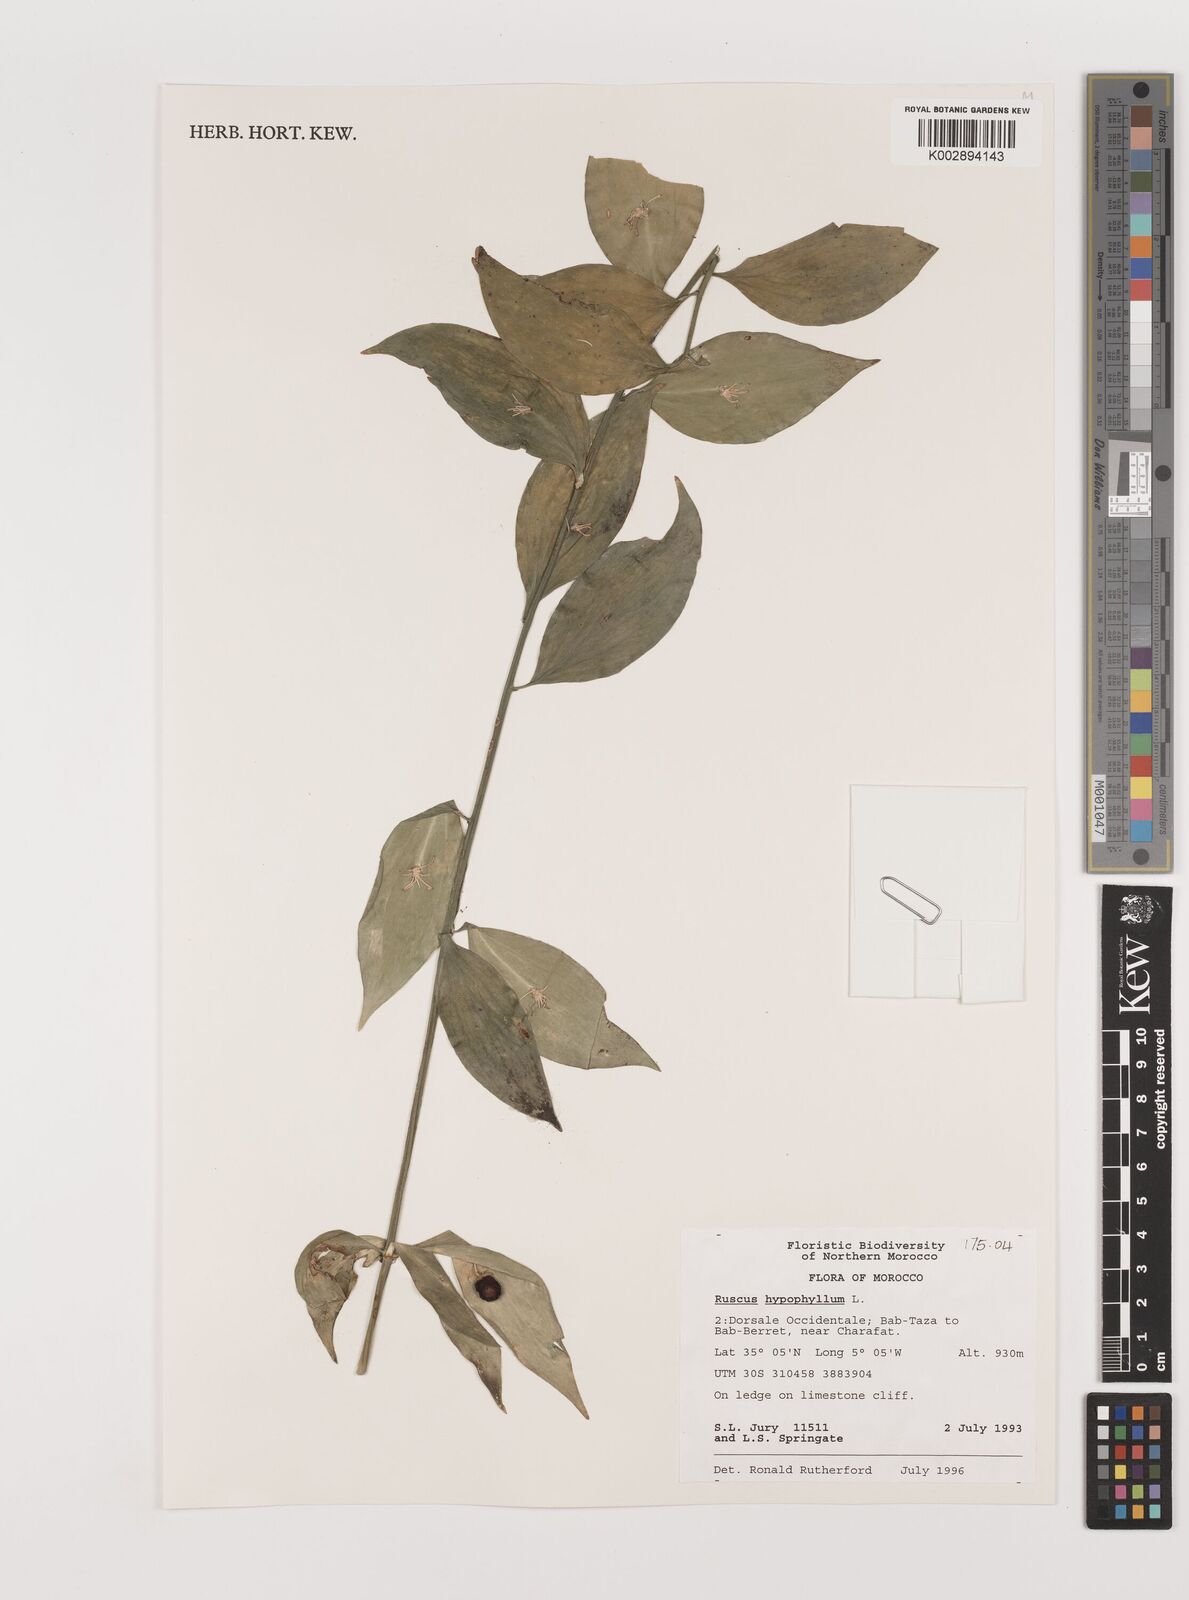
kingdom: Plantae
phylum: Tracheophyta
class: Liliopsida
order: Asparagales
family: Asparagaceae
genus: Ruscus
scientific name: Ruscus hypophyllum
